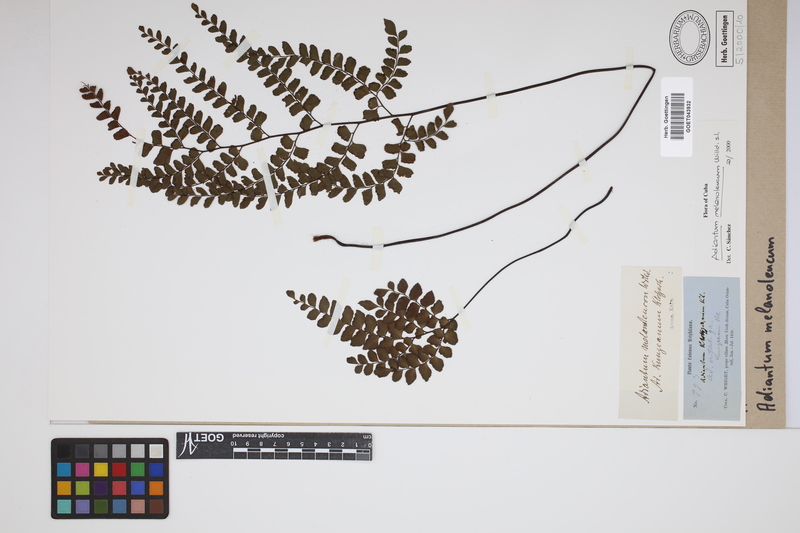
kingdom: Plantae
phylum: Tracheophyta
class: Polypodiopsida
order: Polypodiales
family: Pteridaceae
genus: Adiantum
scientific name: Adiantum melanoleucum
